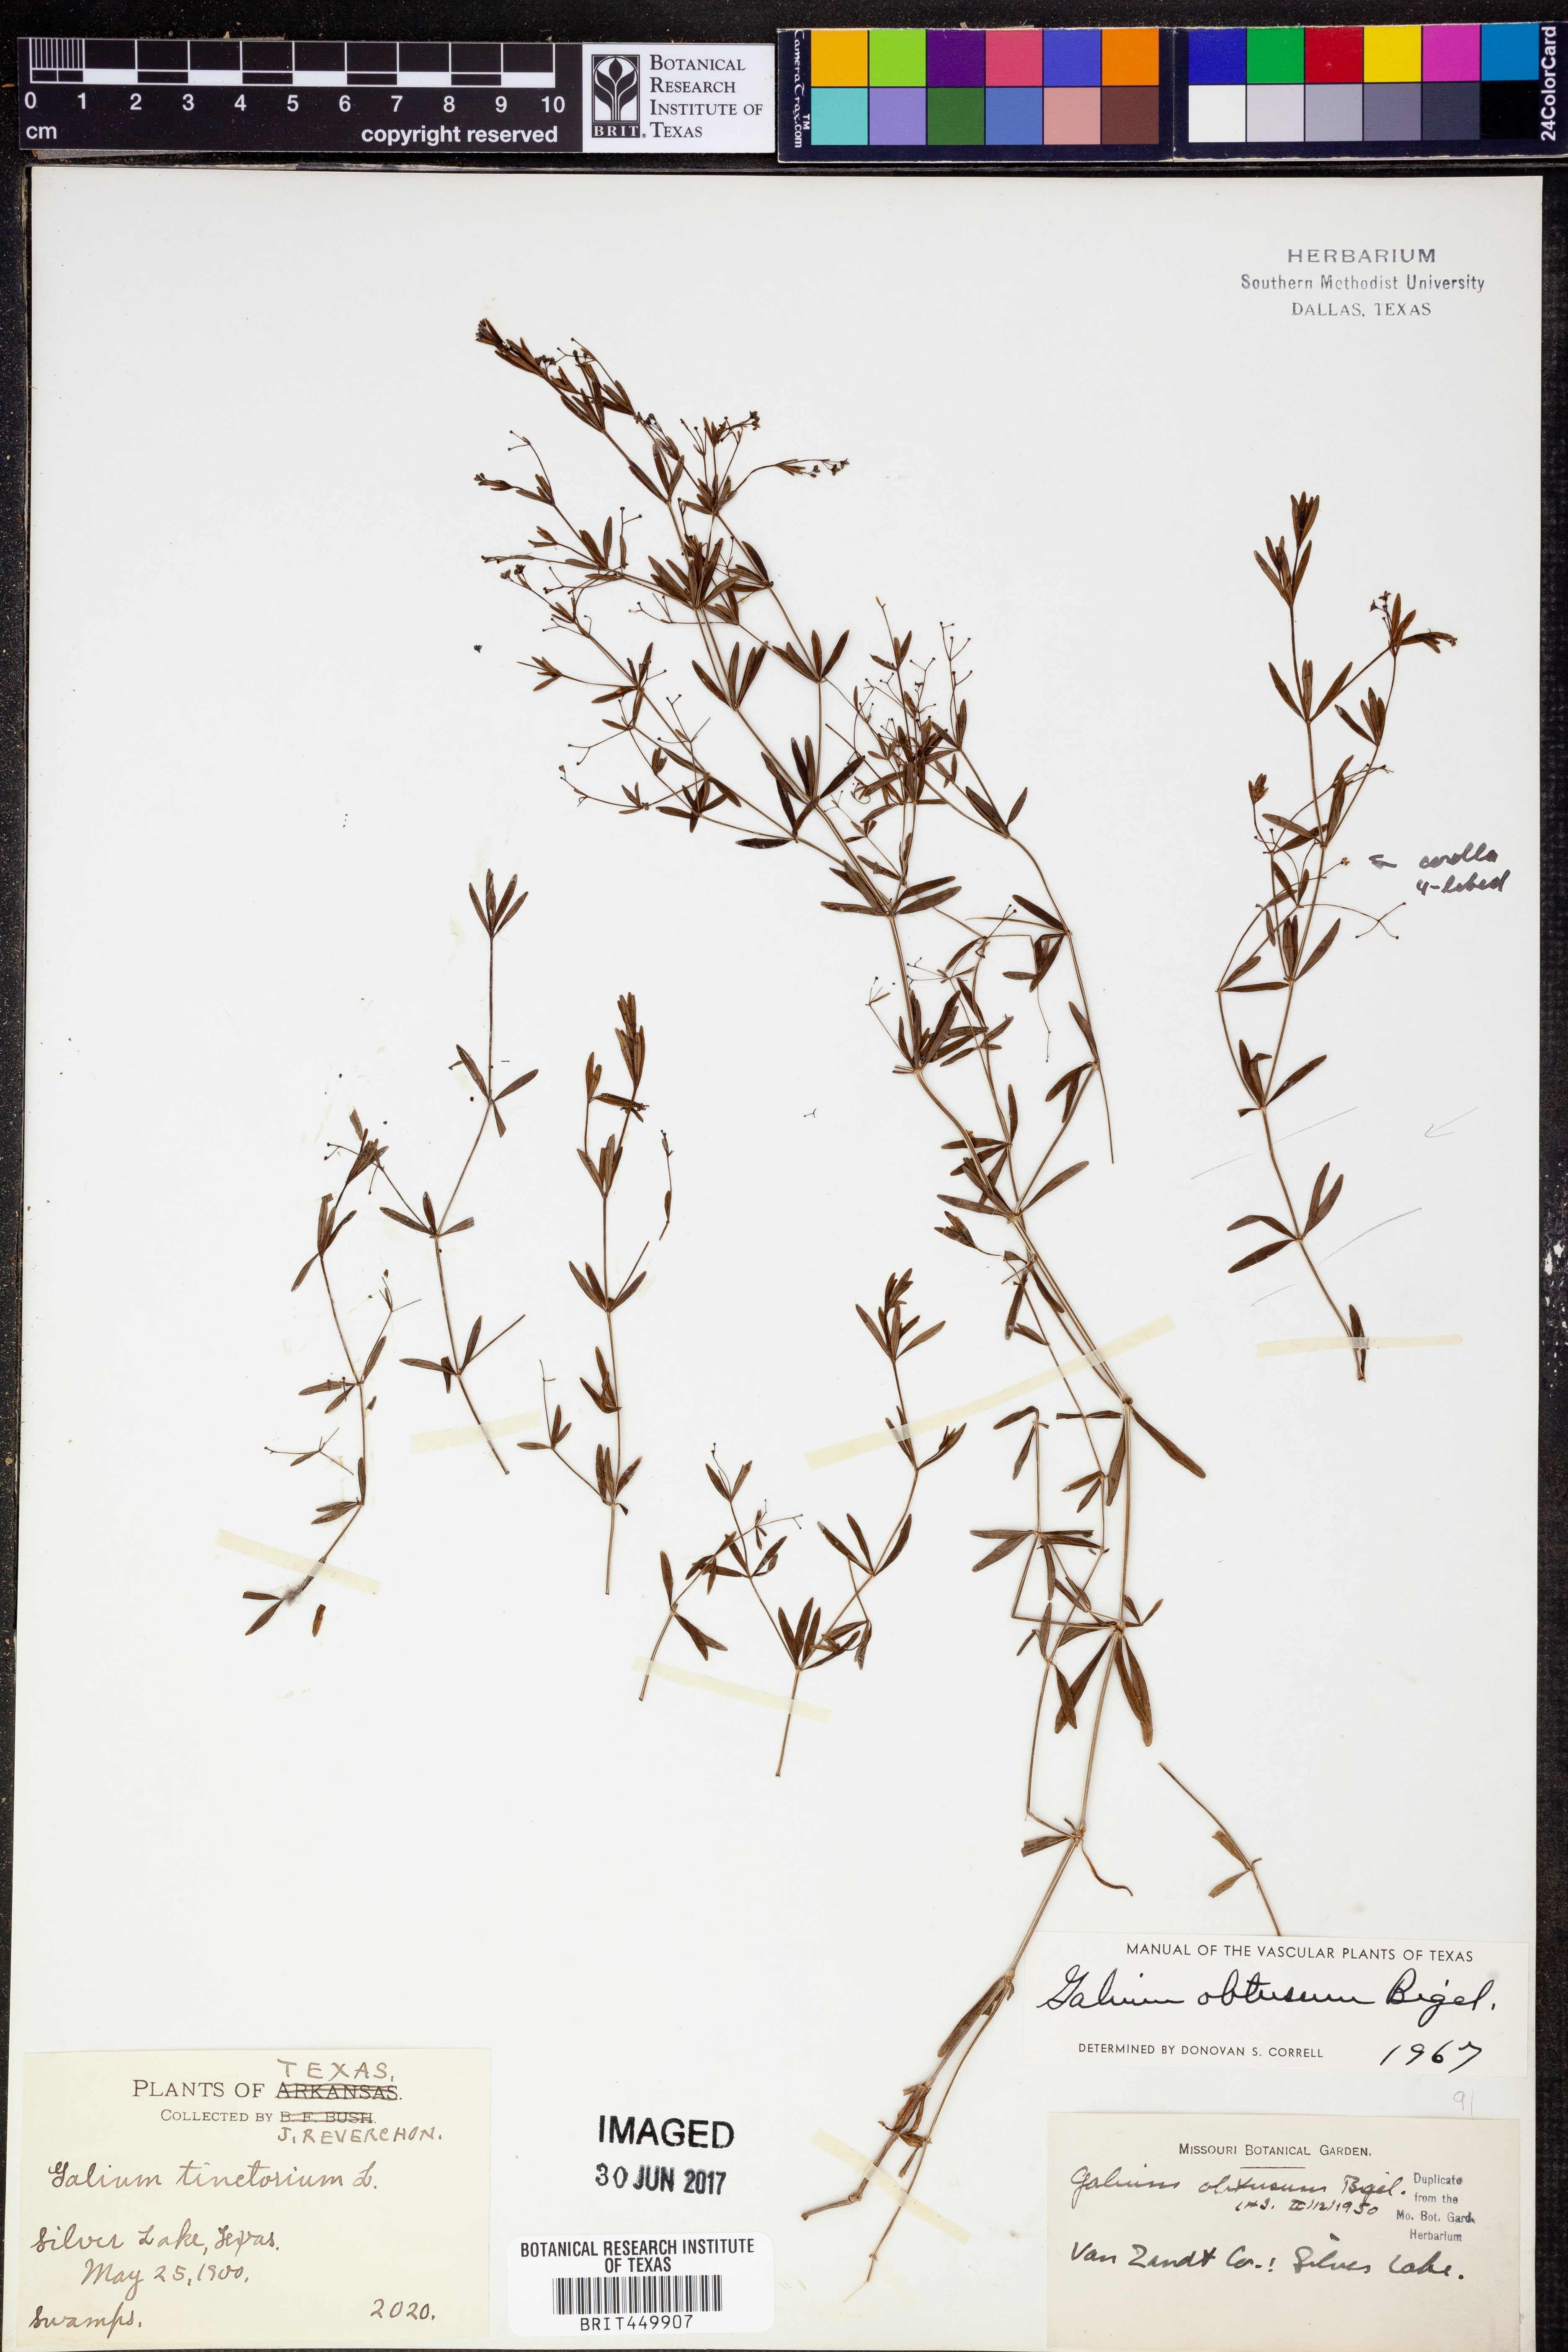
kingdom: Plantae
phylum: Tracheophyta
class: Magnoliopsida
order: Gentianales
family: Rubiaceae
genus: Galium
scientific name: Galium obtusum
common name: Blunt-leaved bedstraw
